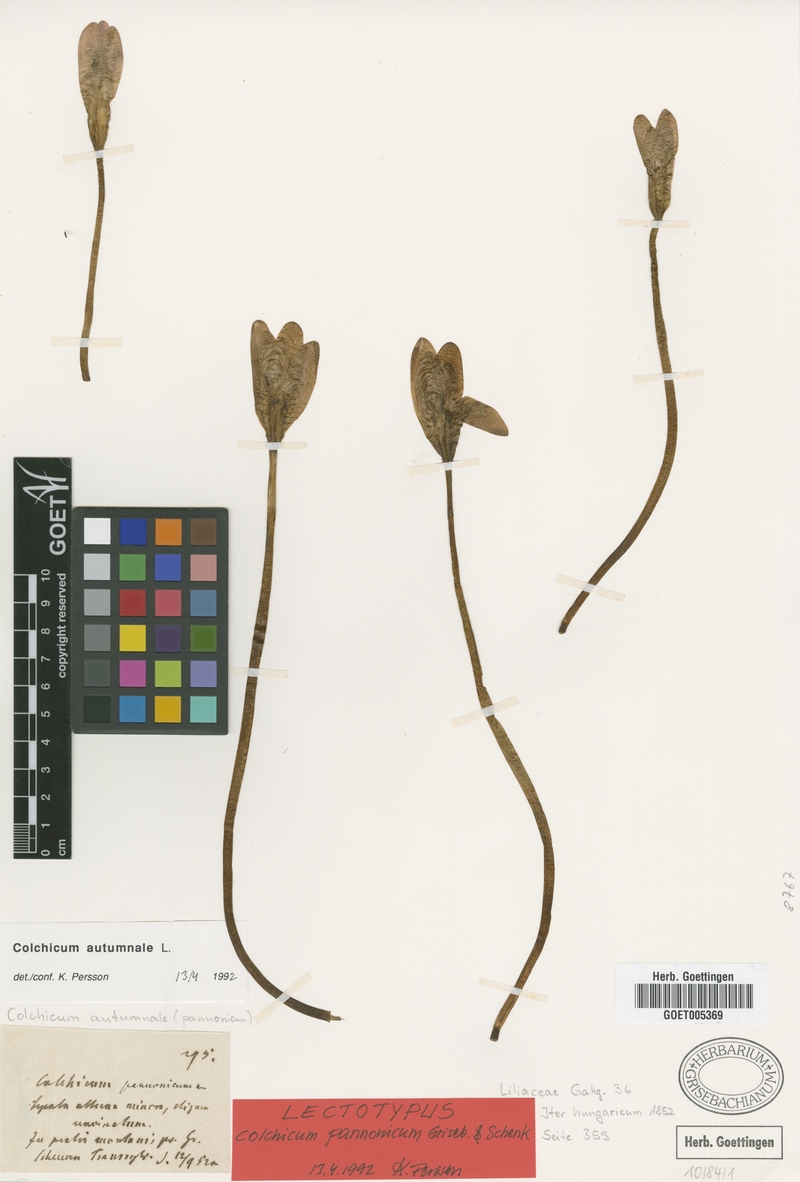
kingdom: Plantae
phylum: Tracheophyta
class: Liliopsida
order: Liliales
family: Colchicaceae
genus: Colchicum
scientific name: Colchicum autumnale
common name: Autumn crocus
